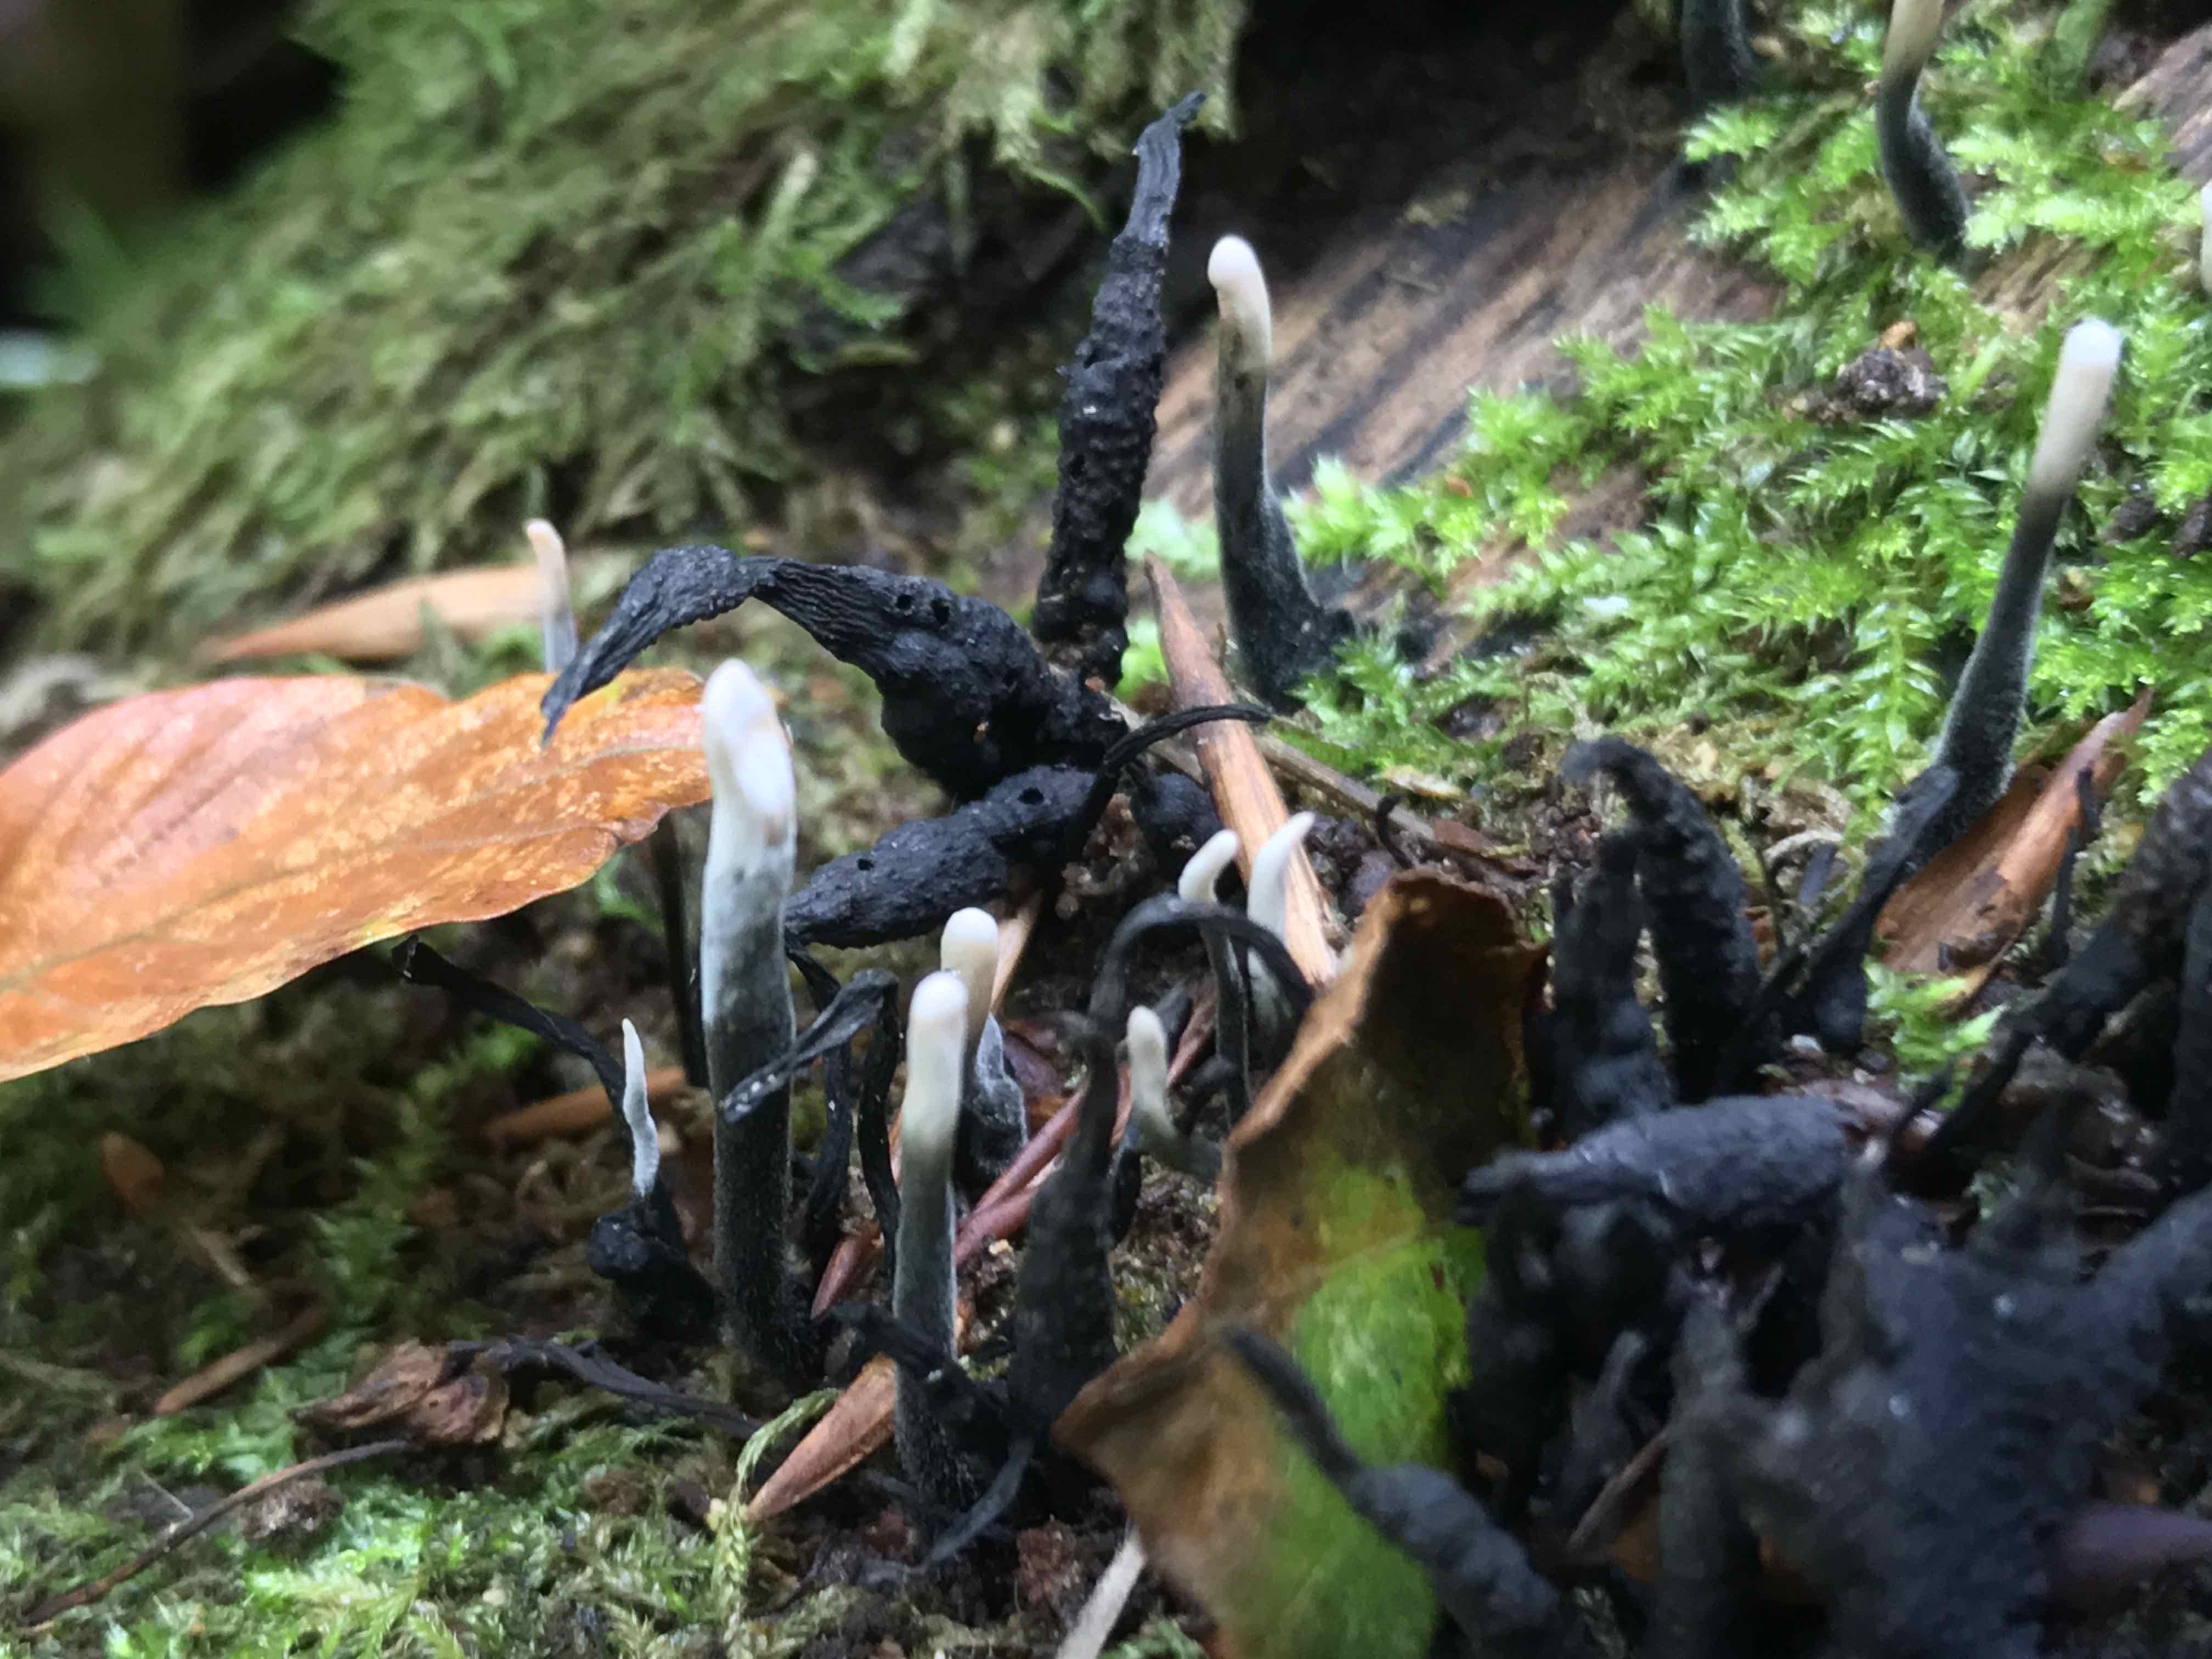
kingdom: Fungi
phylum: Ascomycota
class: Sordariomycetes
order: Xylariales
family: Xylariaceae
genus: Xylaria
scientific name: Xylaria hypoxylon
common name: grenet stødsvamp
